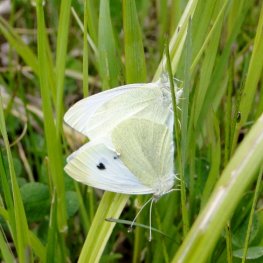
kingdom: Animalia
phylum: Arthropoda
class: Insecta
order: Lepidoptera
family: Pieridae
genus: Pieris
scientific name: Pieris rapae
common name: Cabbage White
